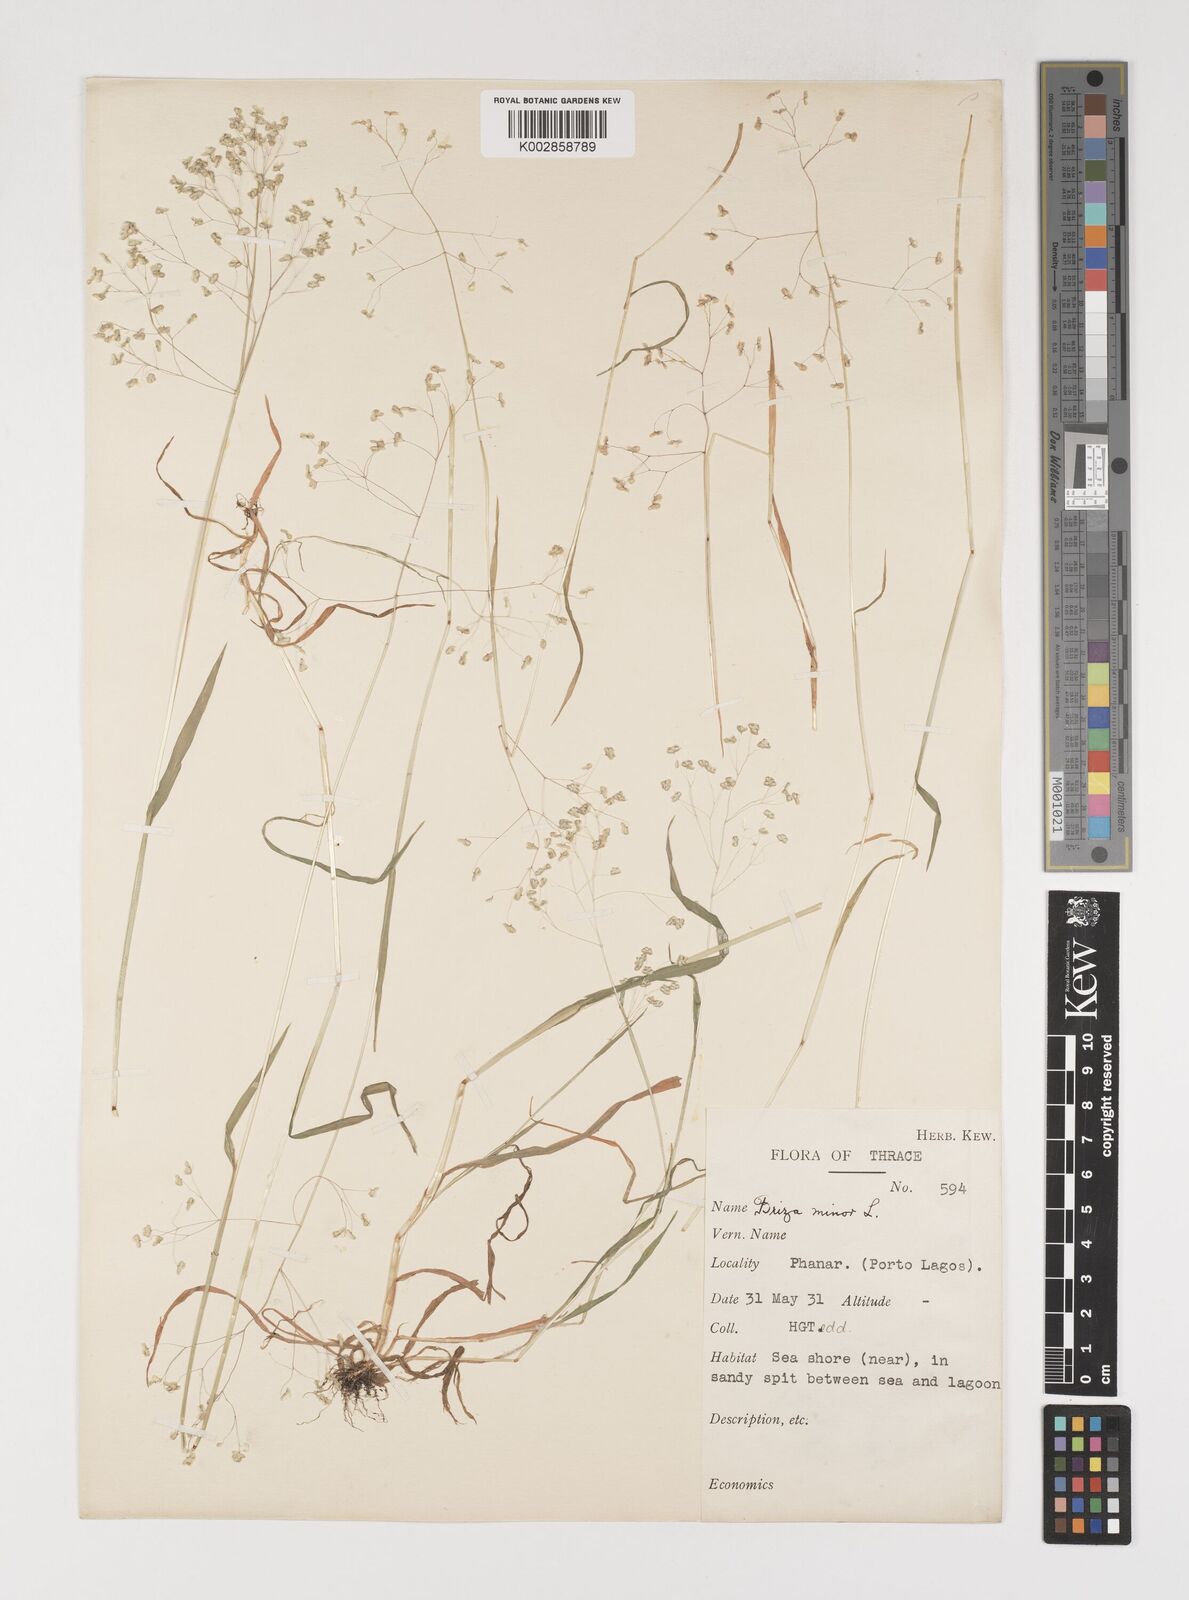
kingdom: Plantae
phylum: Tracheophyta
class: Liliopsida
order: Poales
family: Poaceae
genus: Briza
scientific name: Briza minor
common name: Lesser quaking-grass
